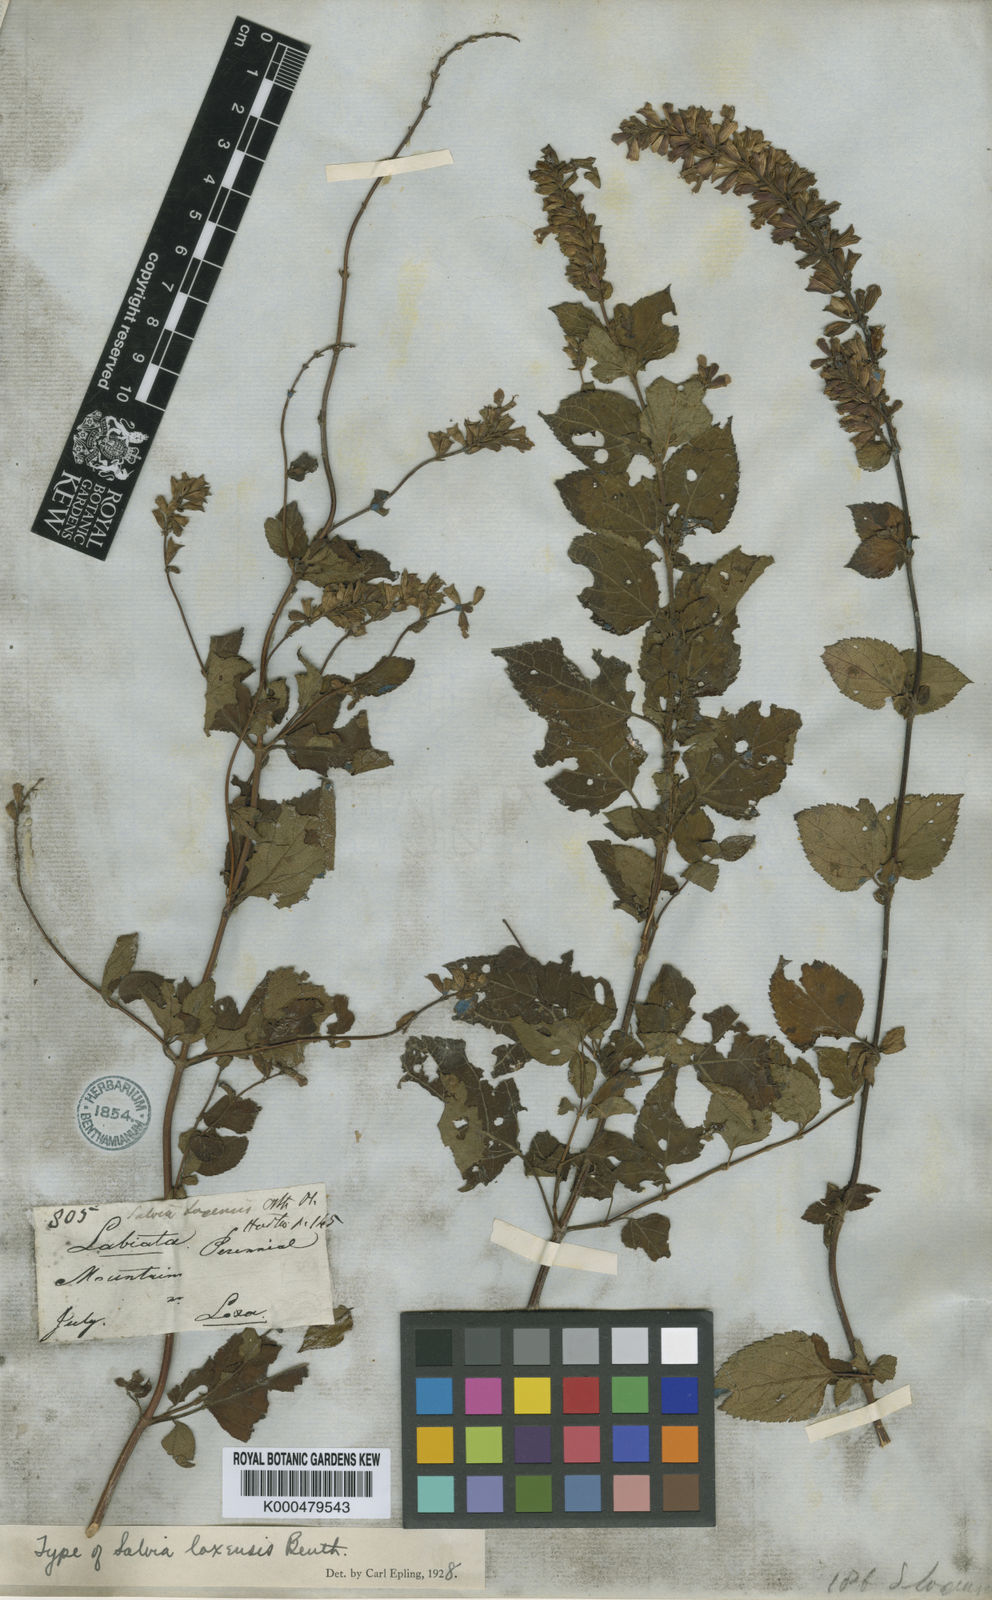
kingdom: Plantae
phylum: Tracheophyta
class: Magnoliopsida
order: Lamiales
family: Lamiaceae
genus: Salvia
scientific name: Salvia loxensis
